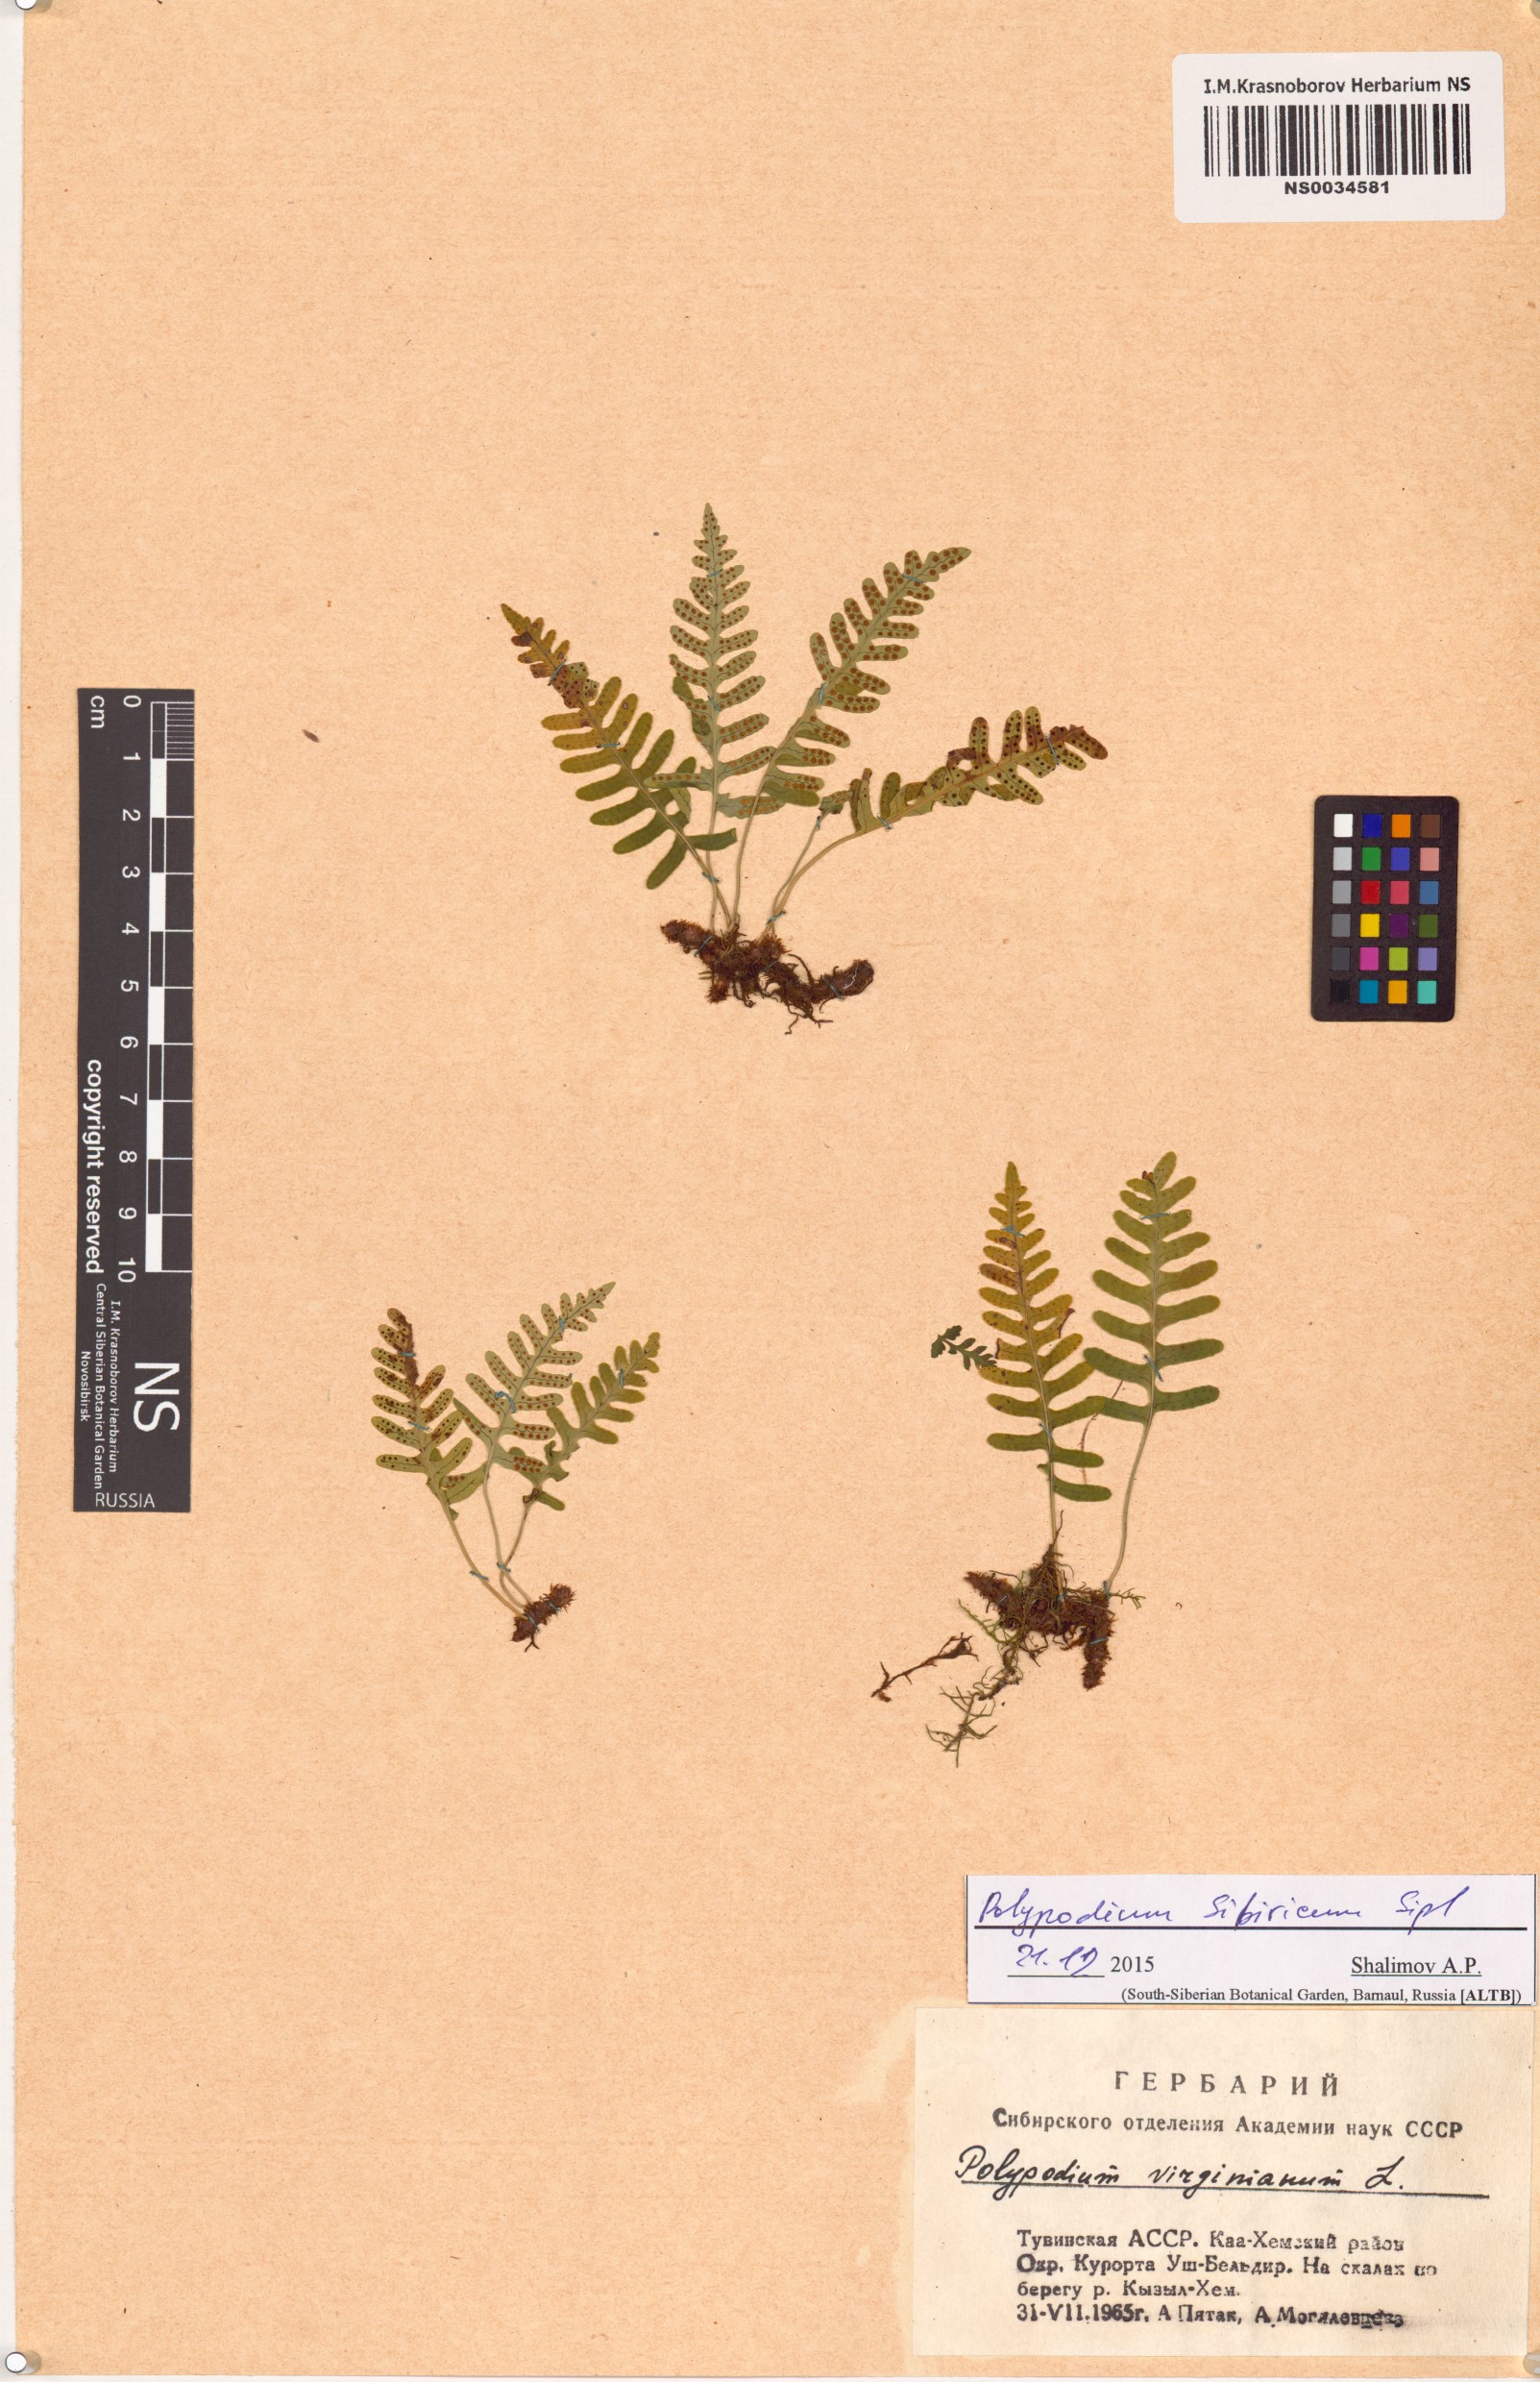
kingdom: Plantae
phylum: Tracheophyta
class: Polypodiopsida
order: Polypodiales
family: Polypodiaceae
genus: Polypodium
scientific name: Polypodium sibiricum
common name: Siberian polypody
